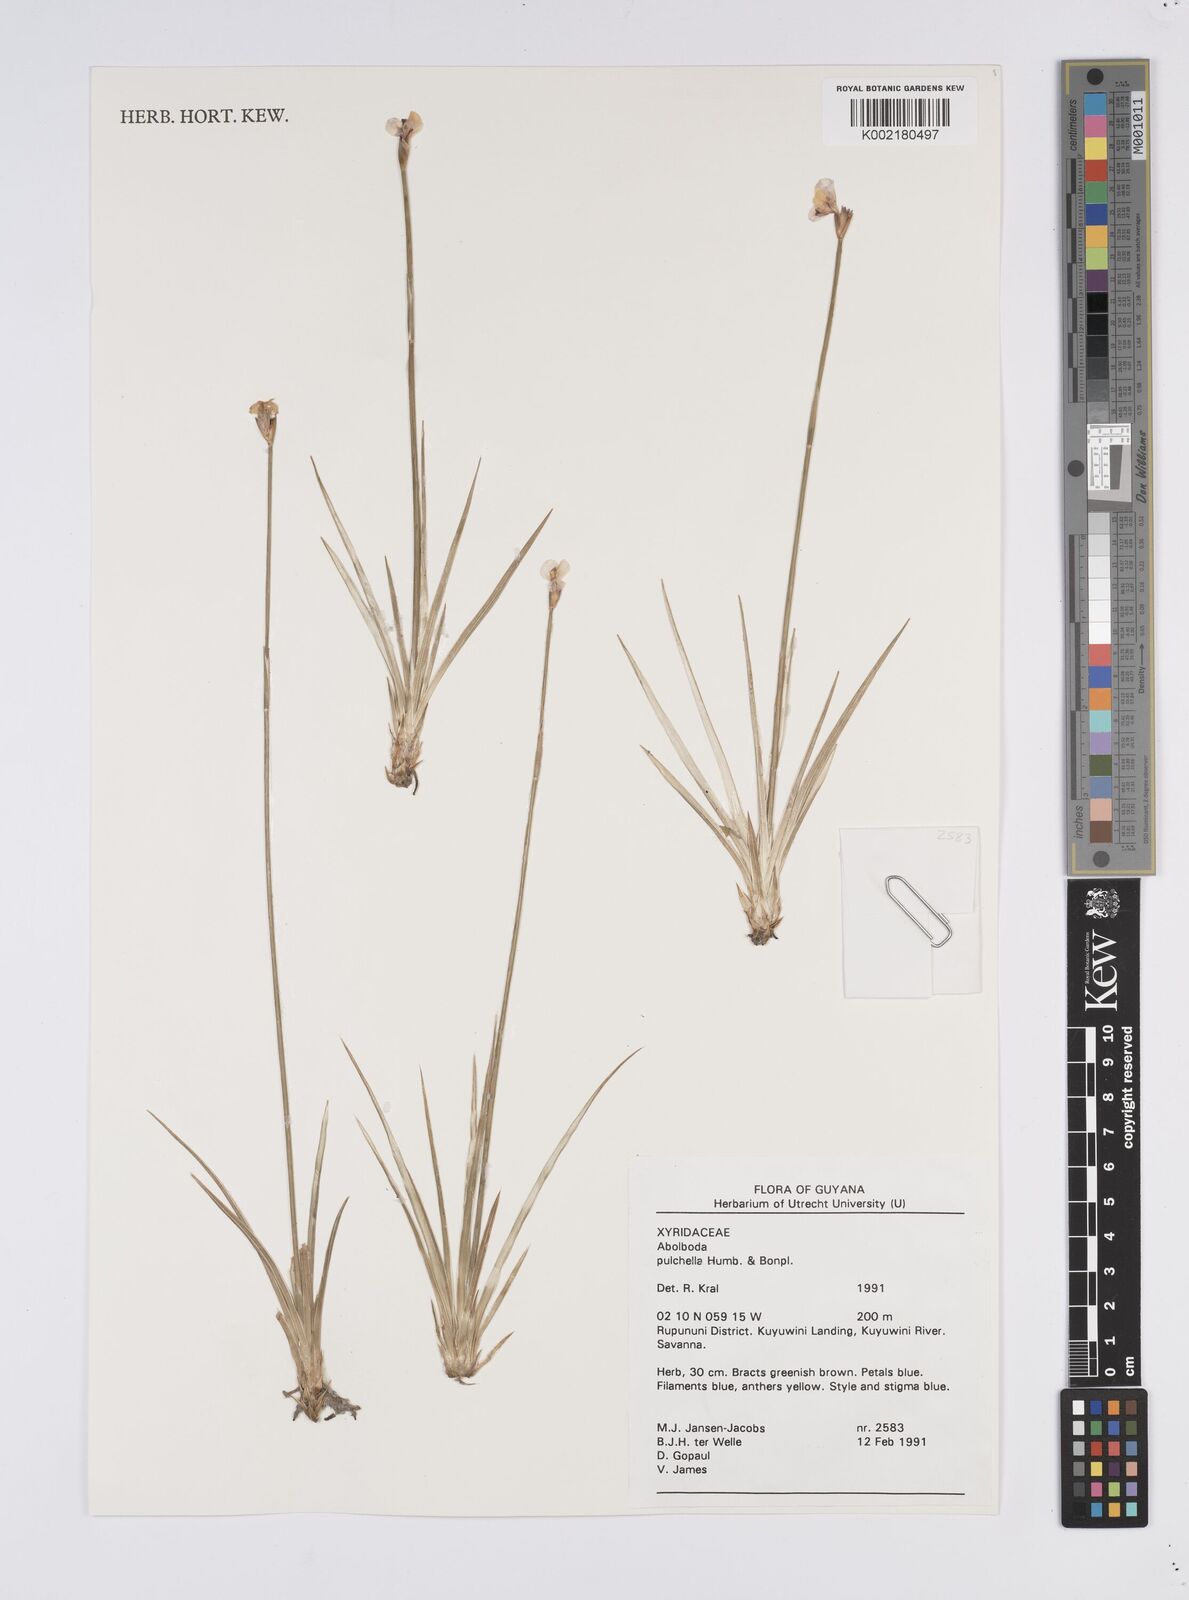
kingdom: Plantae
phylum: Tracheophyta
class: Liliopsida
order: Poales
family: Xyridaceae
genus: Abolboda
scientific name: Abolboda pulchella
